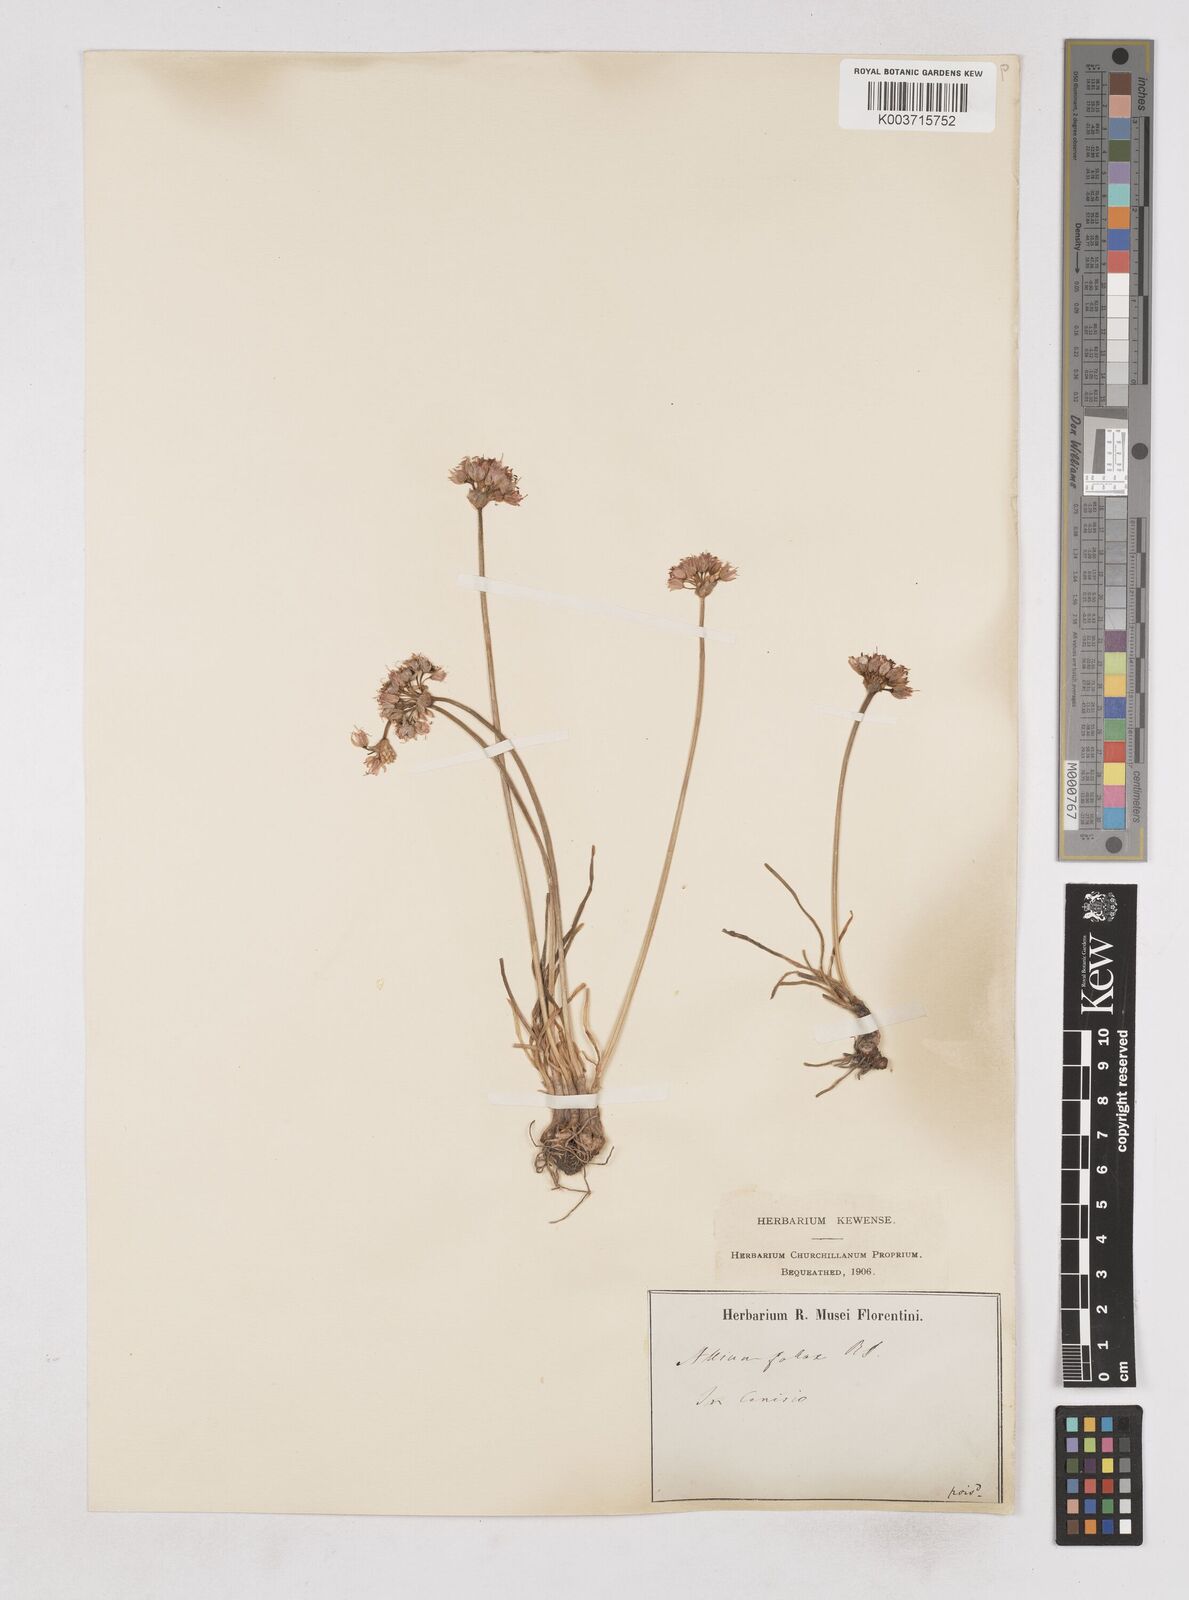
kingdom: Plantae
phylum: Tracheophyta
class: Liliopsida
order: Asparagales
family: Amaryllidaceae
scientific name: Amaryllidaceae
